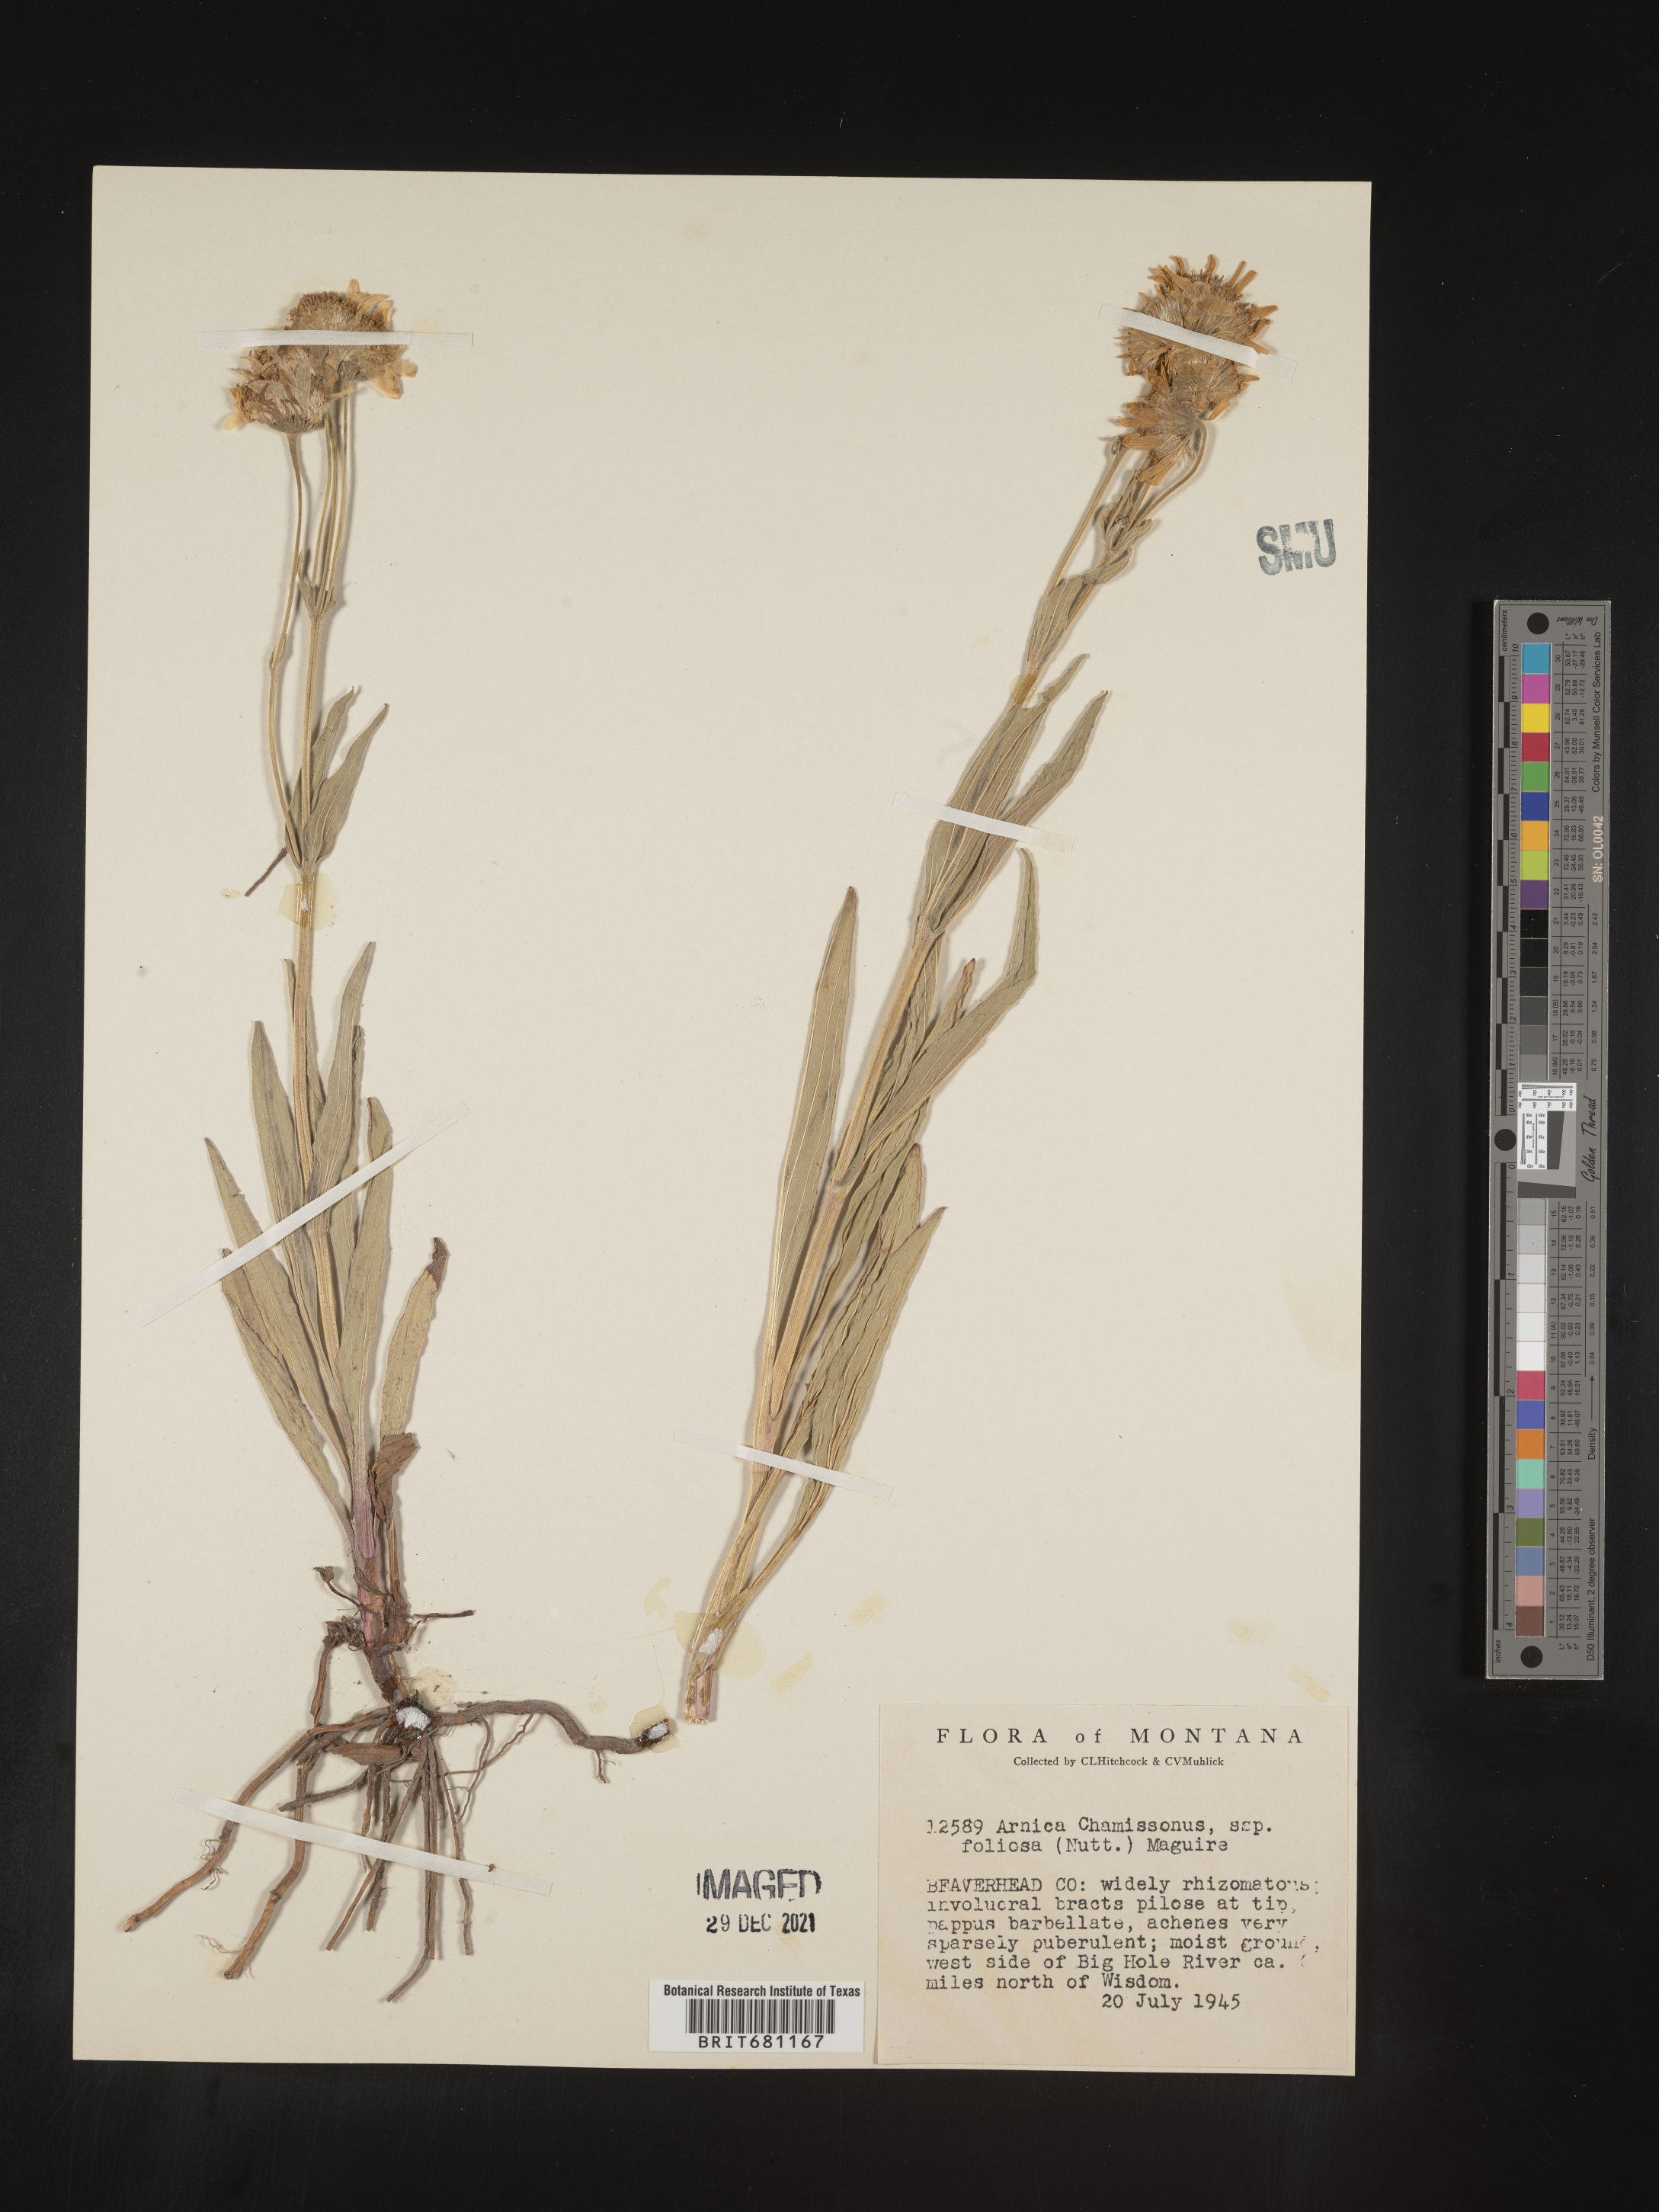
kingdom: Plantae
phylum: Tracheophyta
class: Magnoliopsida
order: Asterales
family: Asteraceae
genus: Arnica
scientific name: Arnica chamissonis
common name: Leafy arnica
